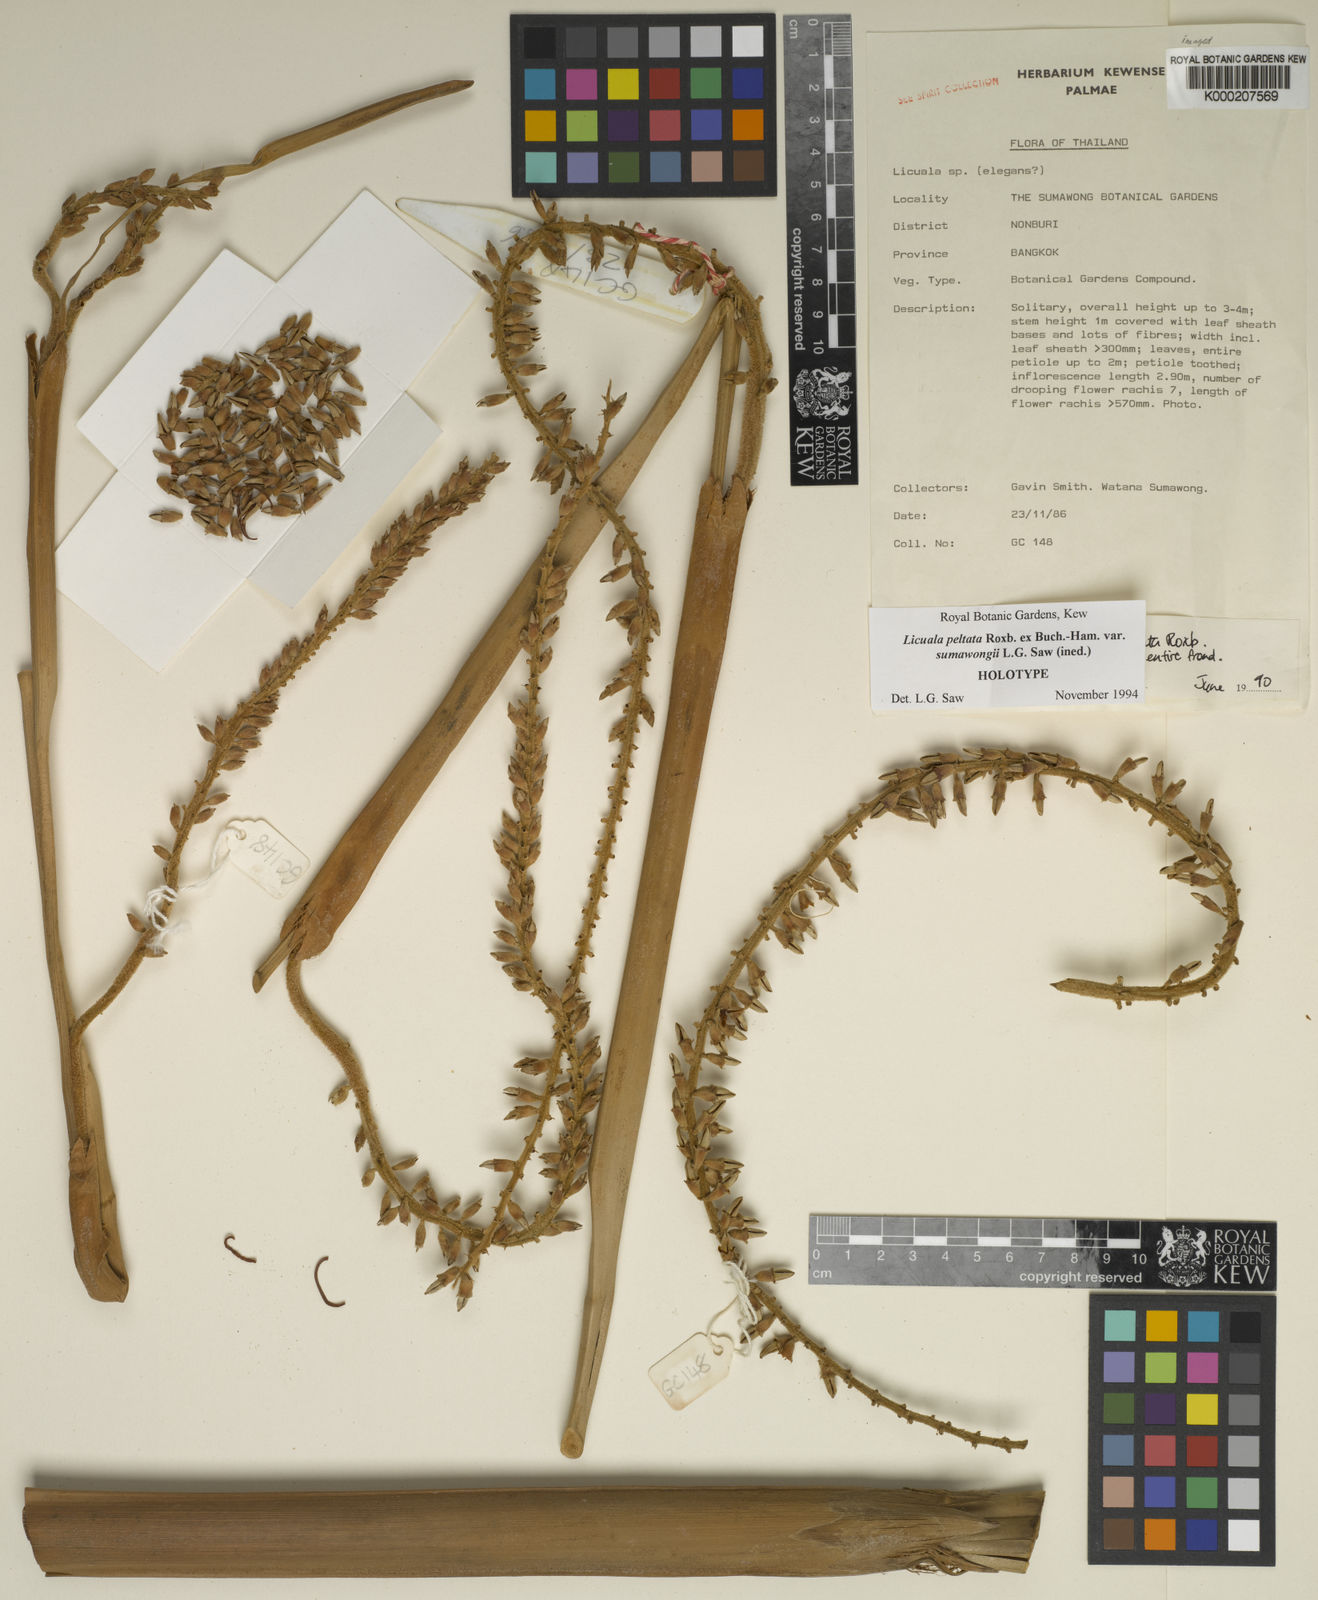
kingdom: Plantae
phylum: Tracheophyta
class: Liliopsida
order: Arecales
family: Arecaceae
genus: Licuala
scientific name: Licuala peltata
